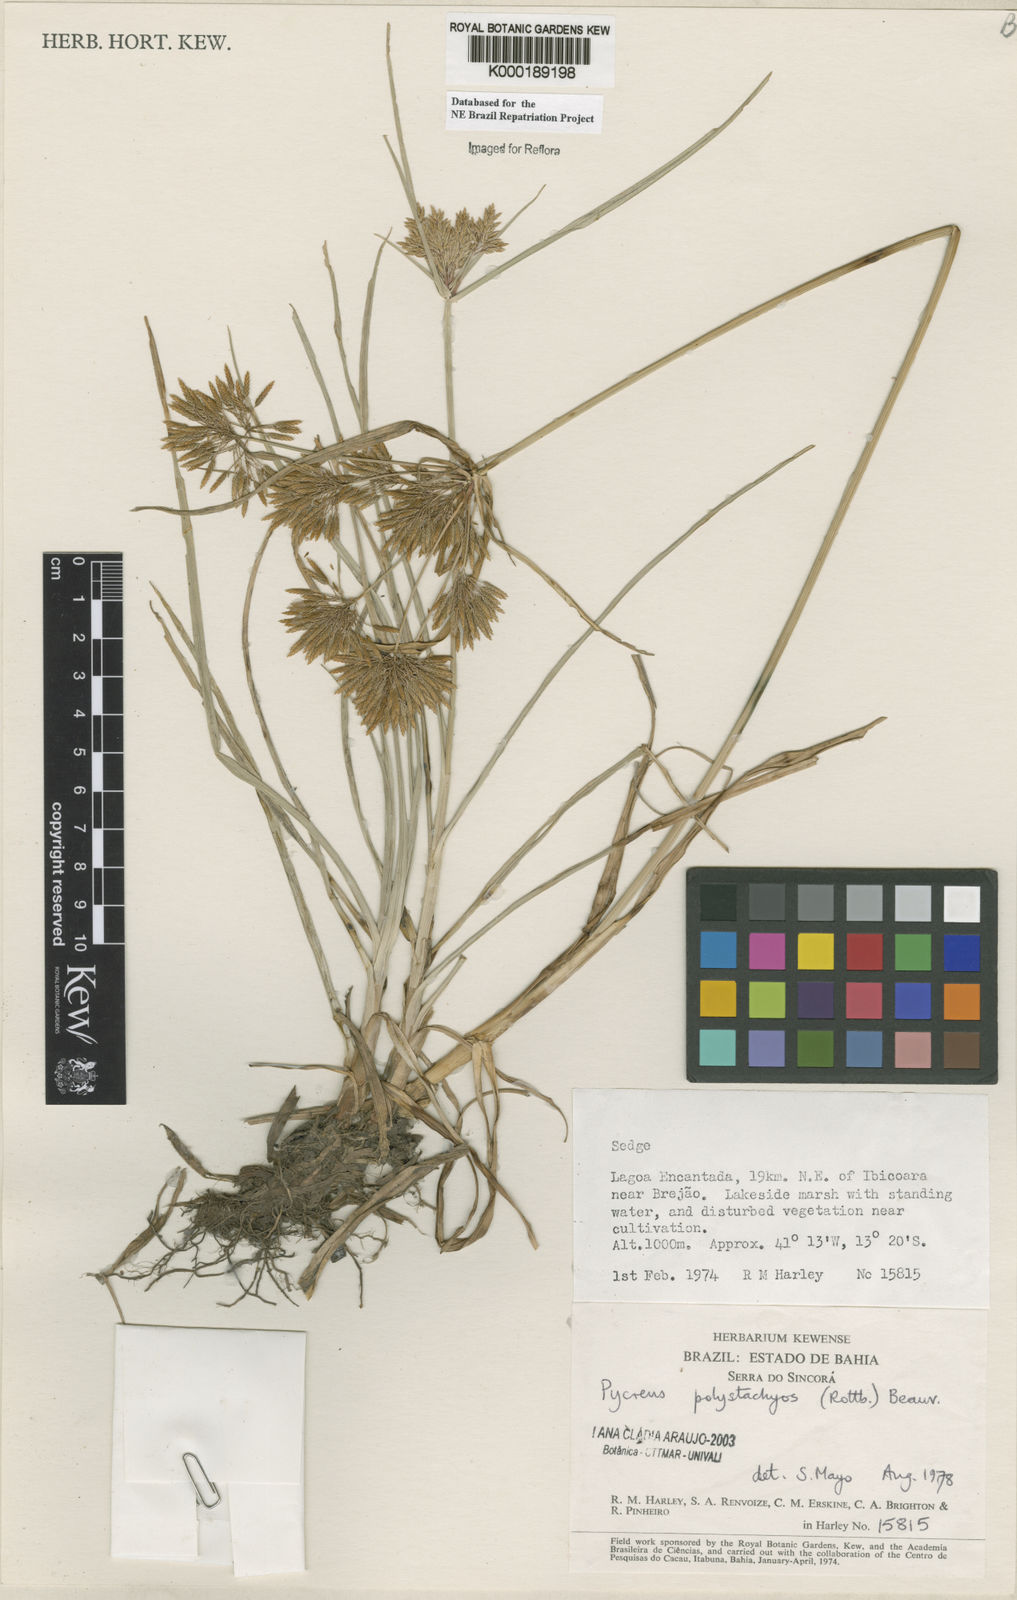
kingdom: Plantae
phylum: Tracheophyta
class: Liliopsida
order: Poales
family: Cyperaceae
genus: Cyperus
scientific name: Cyperus polystachyos
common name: Bunchy flat sedge
